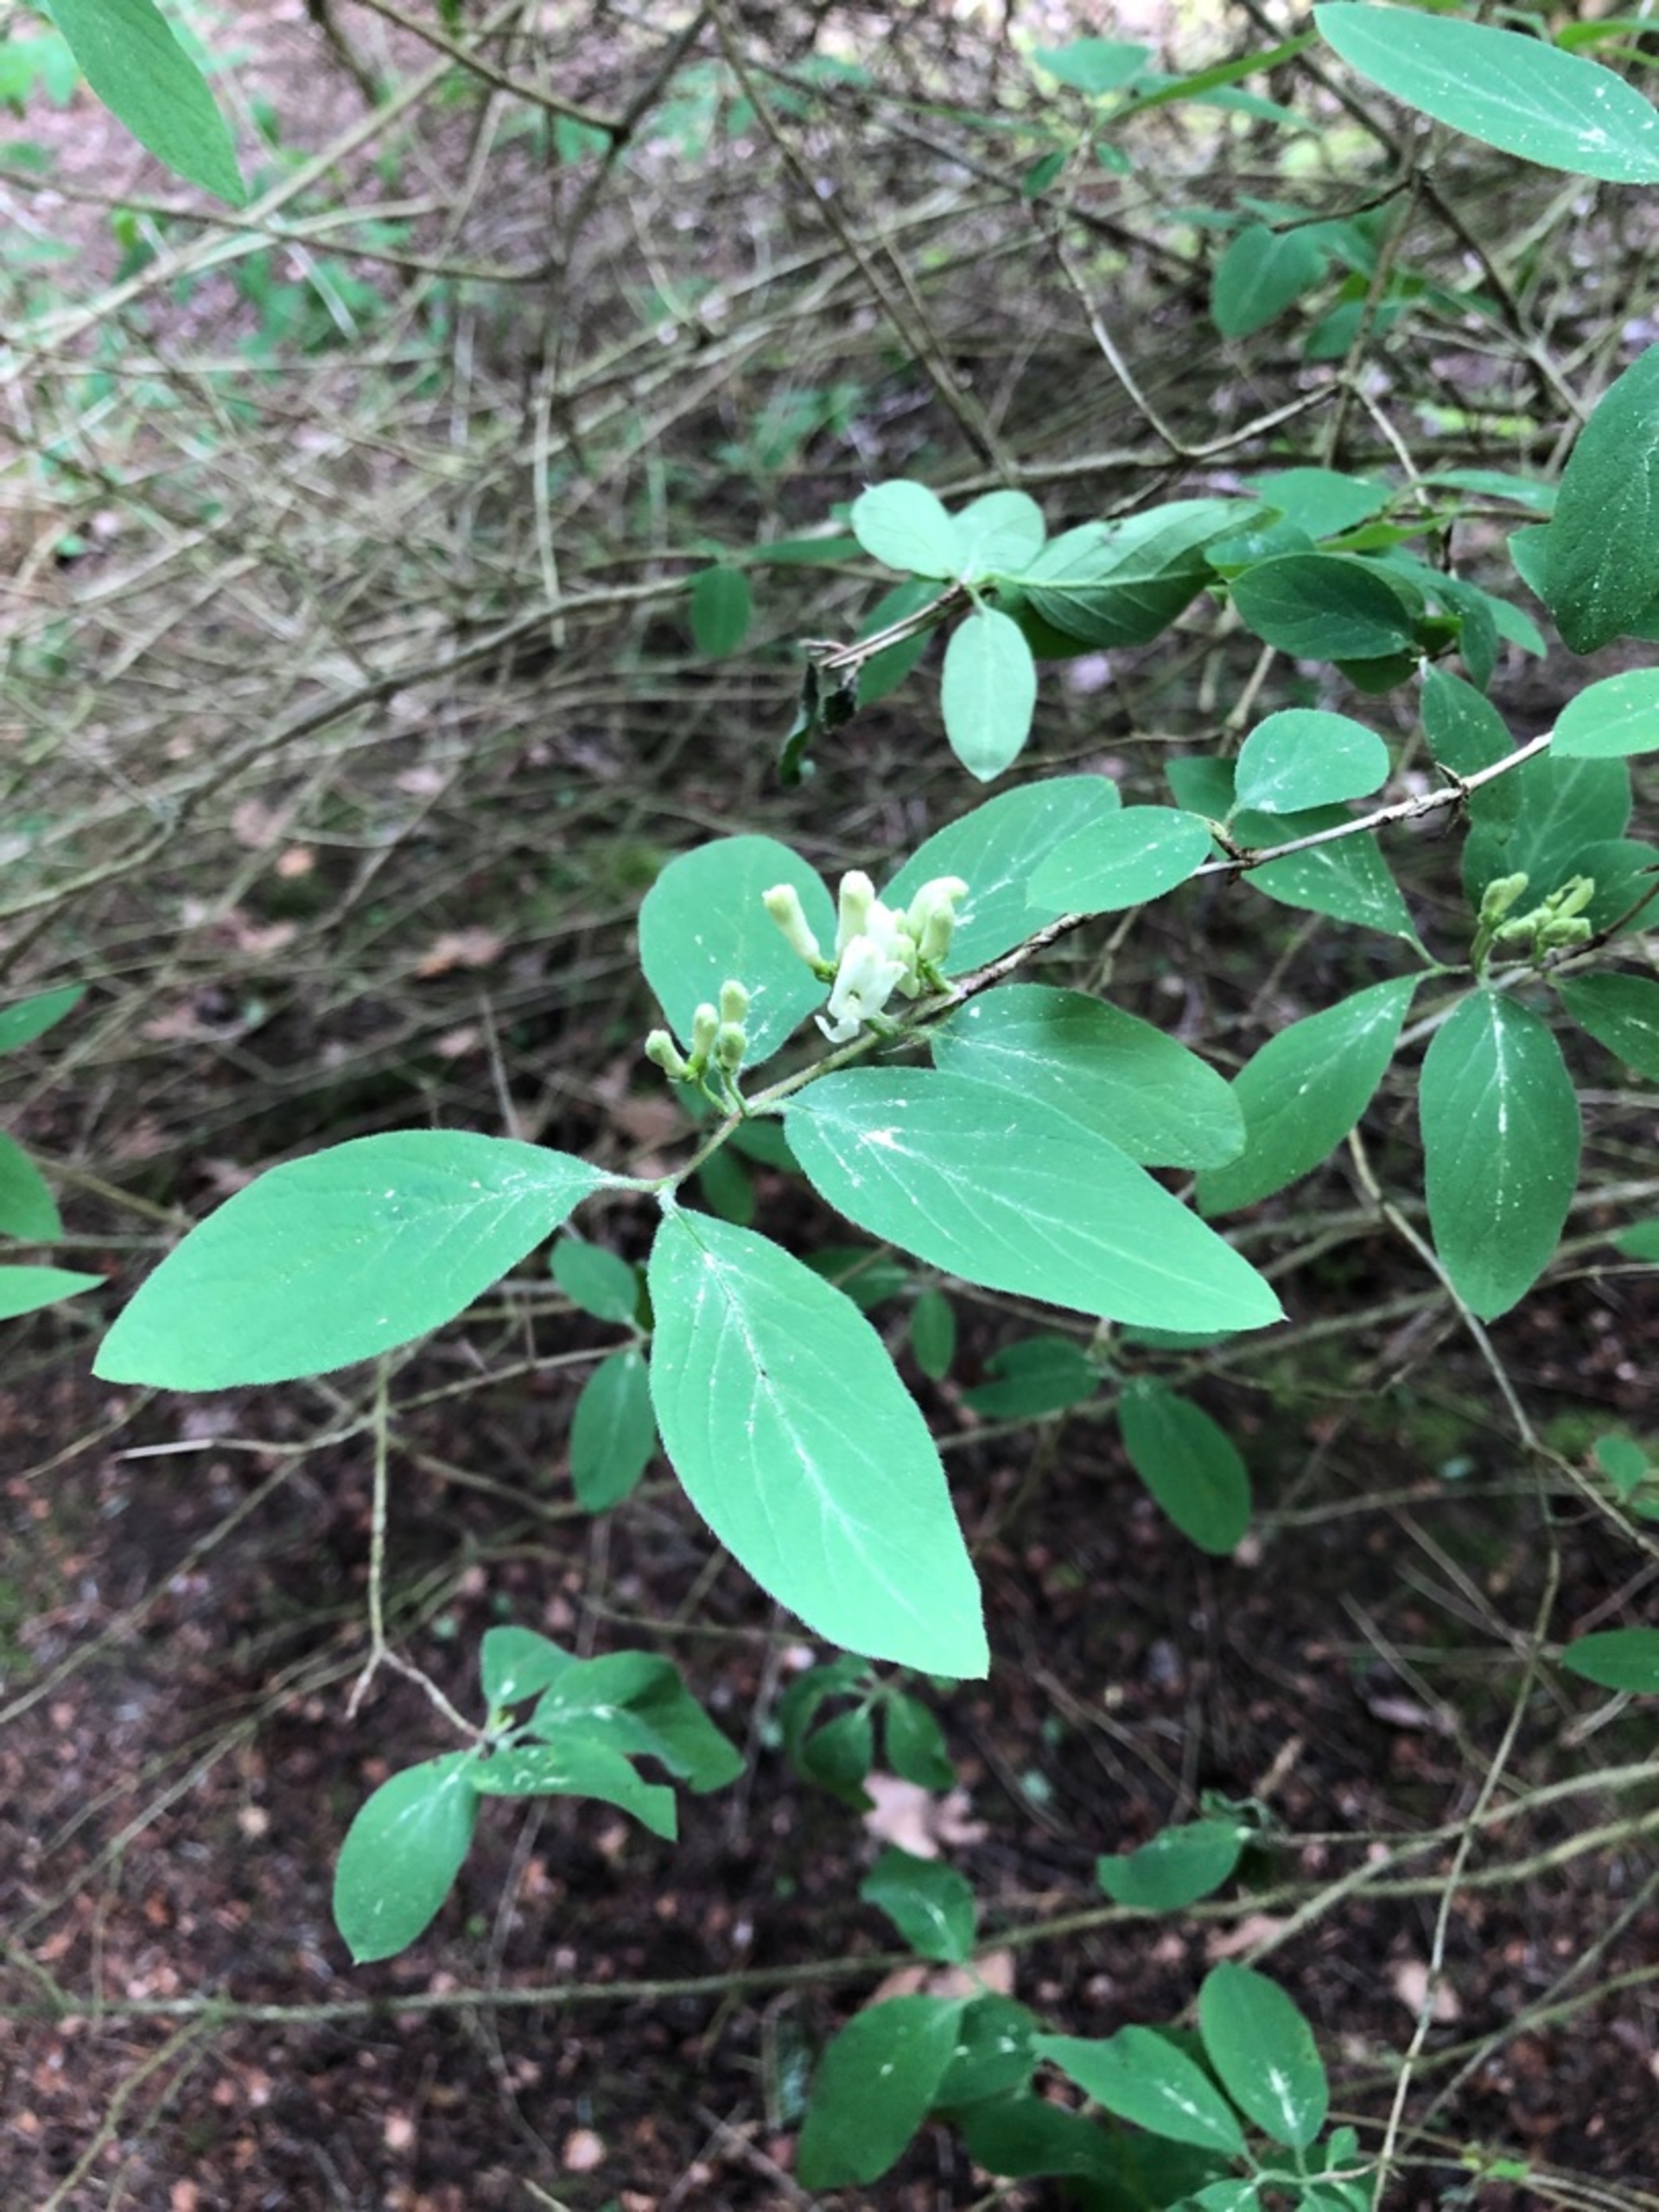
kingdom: Plantae
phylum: Tracheophyta
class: Magnoliopsida
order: Dipsacales
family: Caprifoliaceae
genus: Lonicera
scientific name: Lonicera xylosteum
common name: Dunet gedeblad
